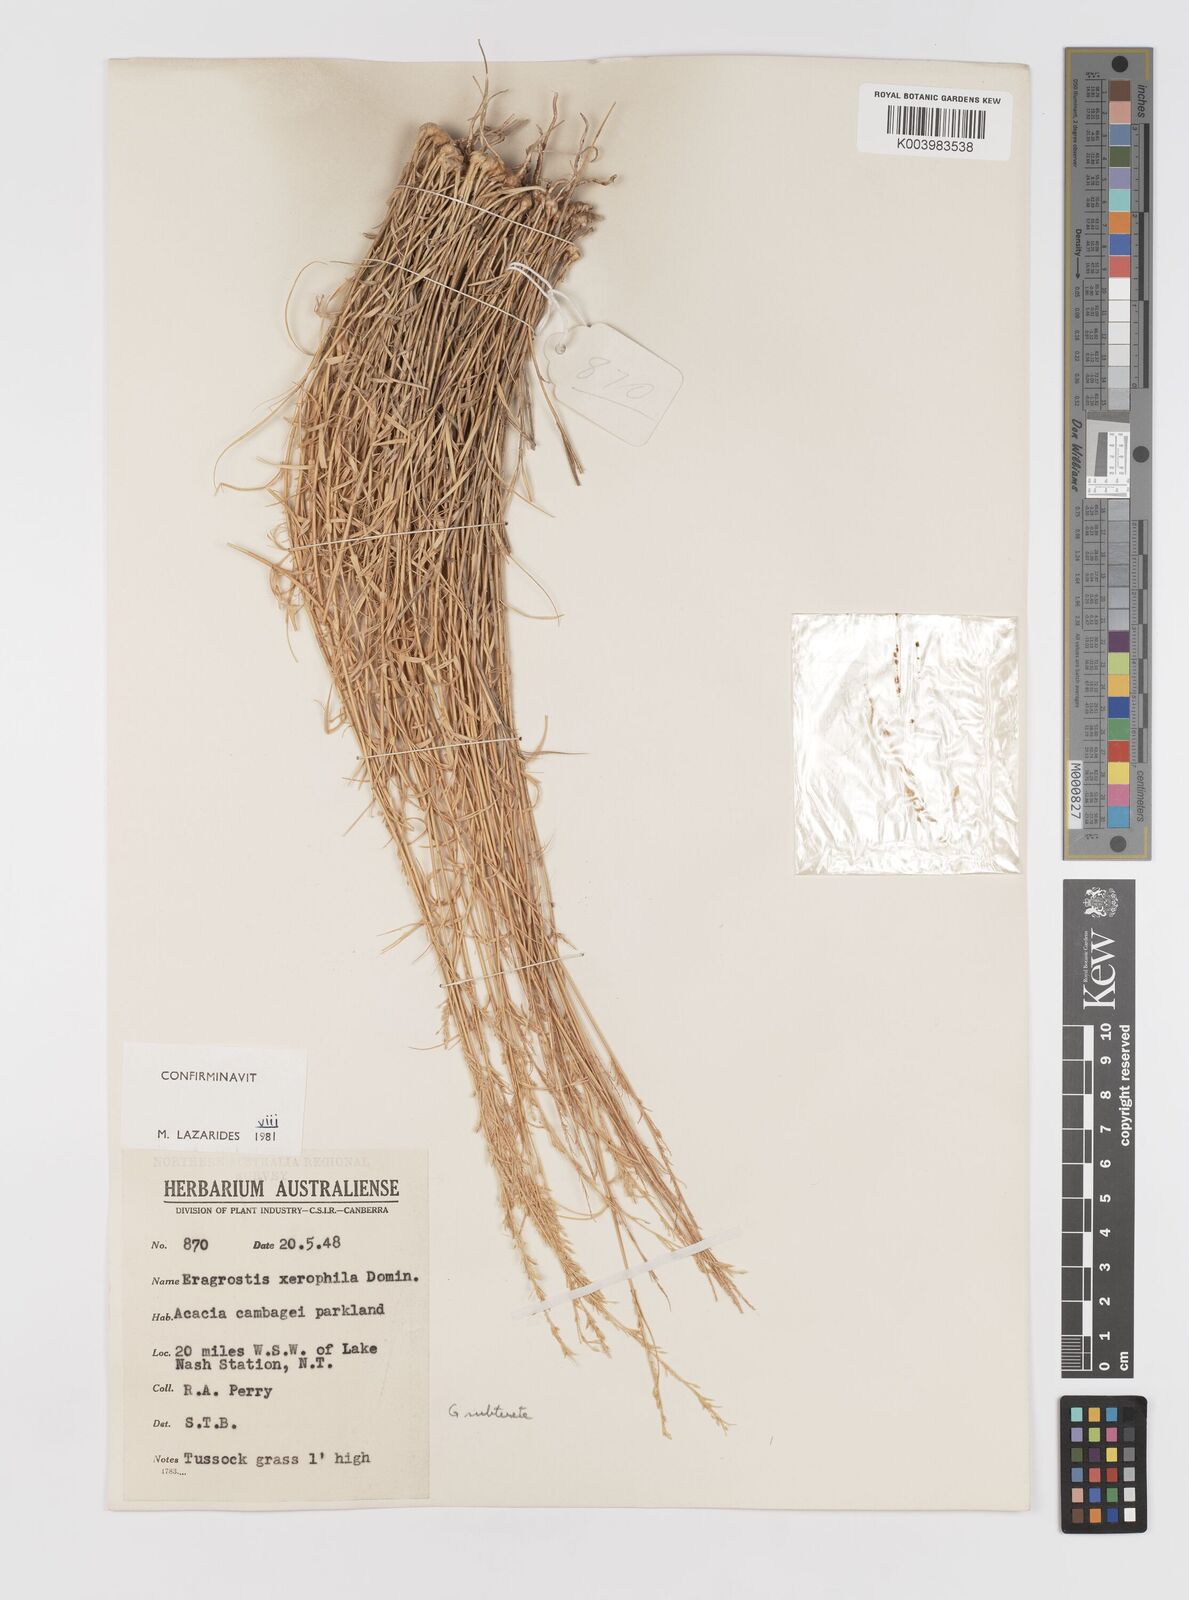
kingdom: Plantae
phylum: Tracheophyta
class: Liliopsida
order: Poales
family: Poaceae
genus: Eragrostis
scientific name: Eragrostis xerophila
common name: Wire wandarrie grass
